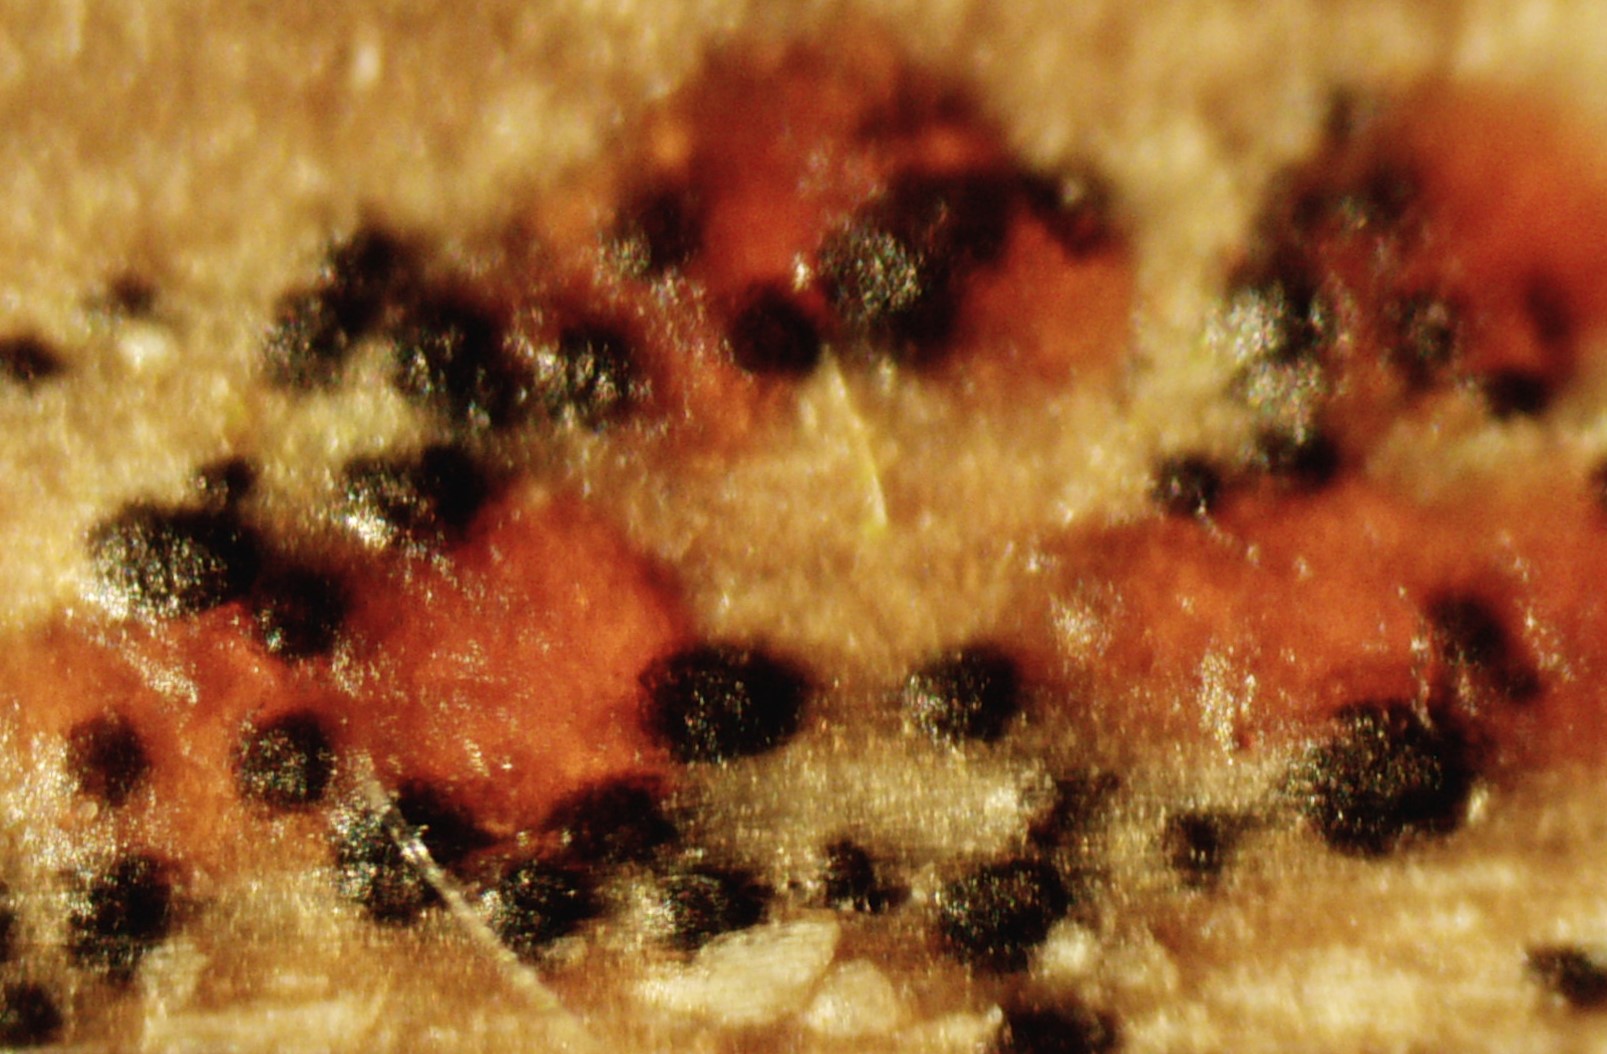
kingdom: Fungi
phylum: Ascomycota
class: Leotiomycetes
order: Helotiales
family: Calloriaceae
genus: Calloria
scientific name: Calloria urticae
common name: nælde-orangeskive
